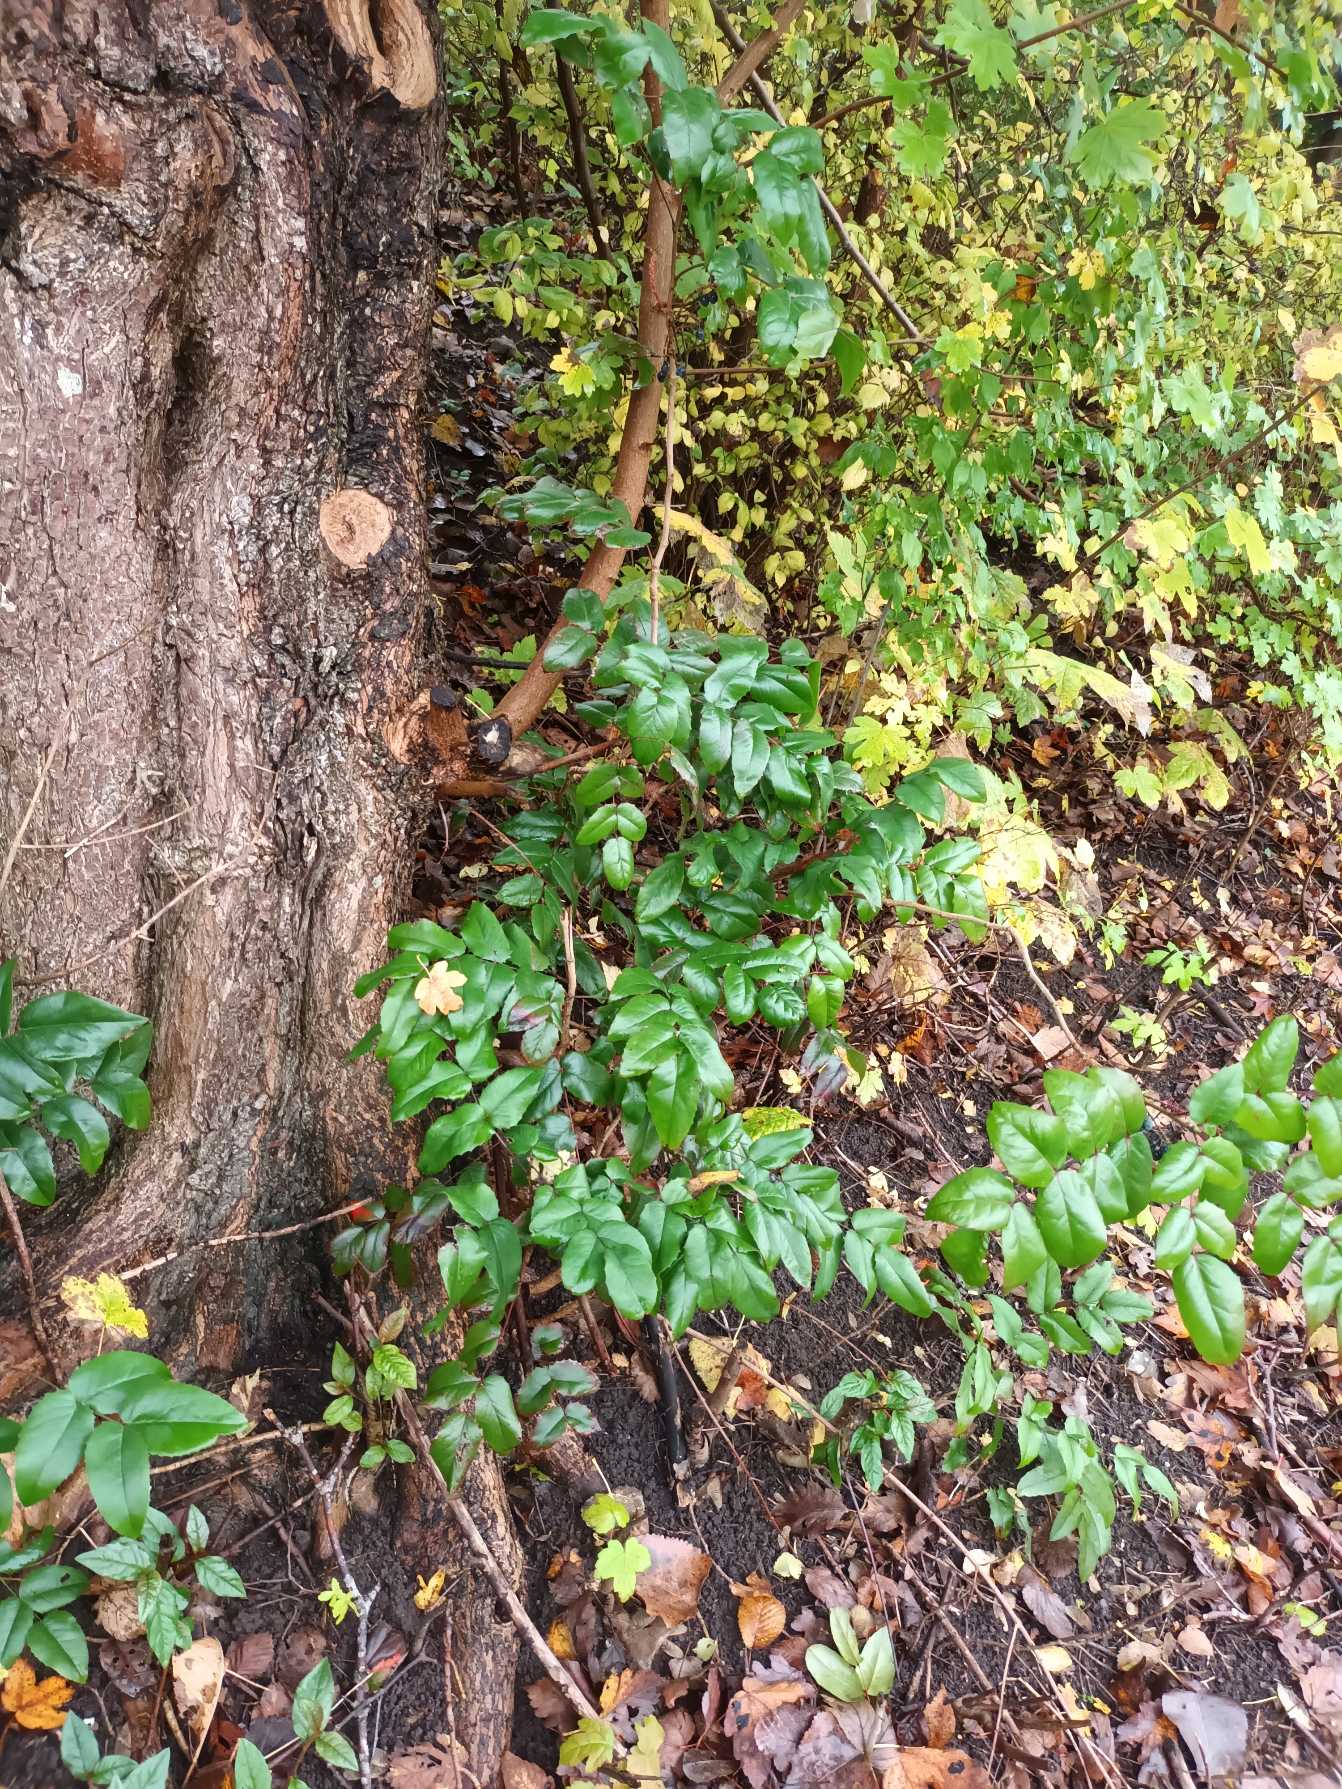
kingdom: Plantae
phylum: Tracheophyta
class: Magnoliopsida
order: Ranunculales
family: Berberidaceae
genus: Mahonia
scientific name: Mahonia aquifolium
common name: Almindelig mahonie
